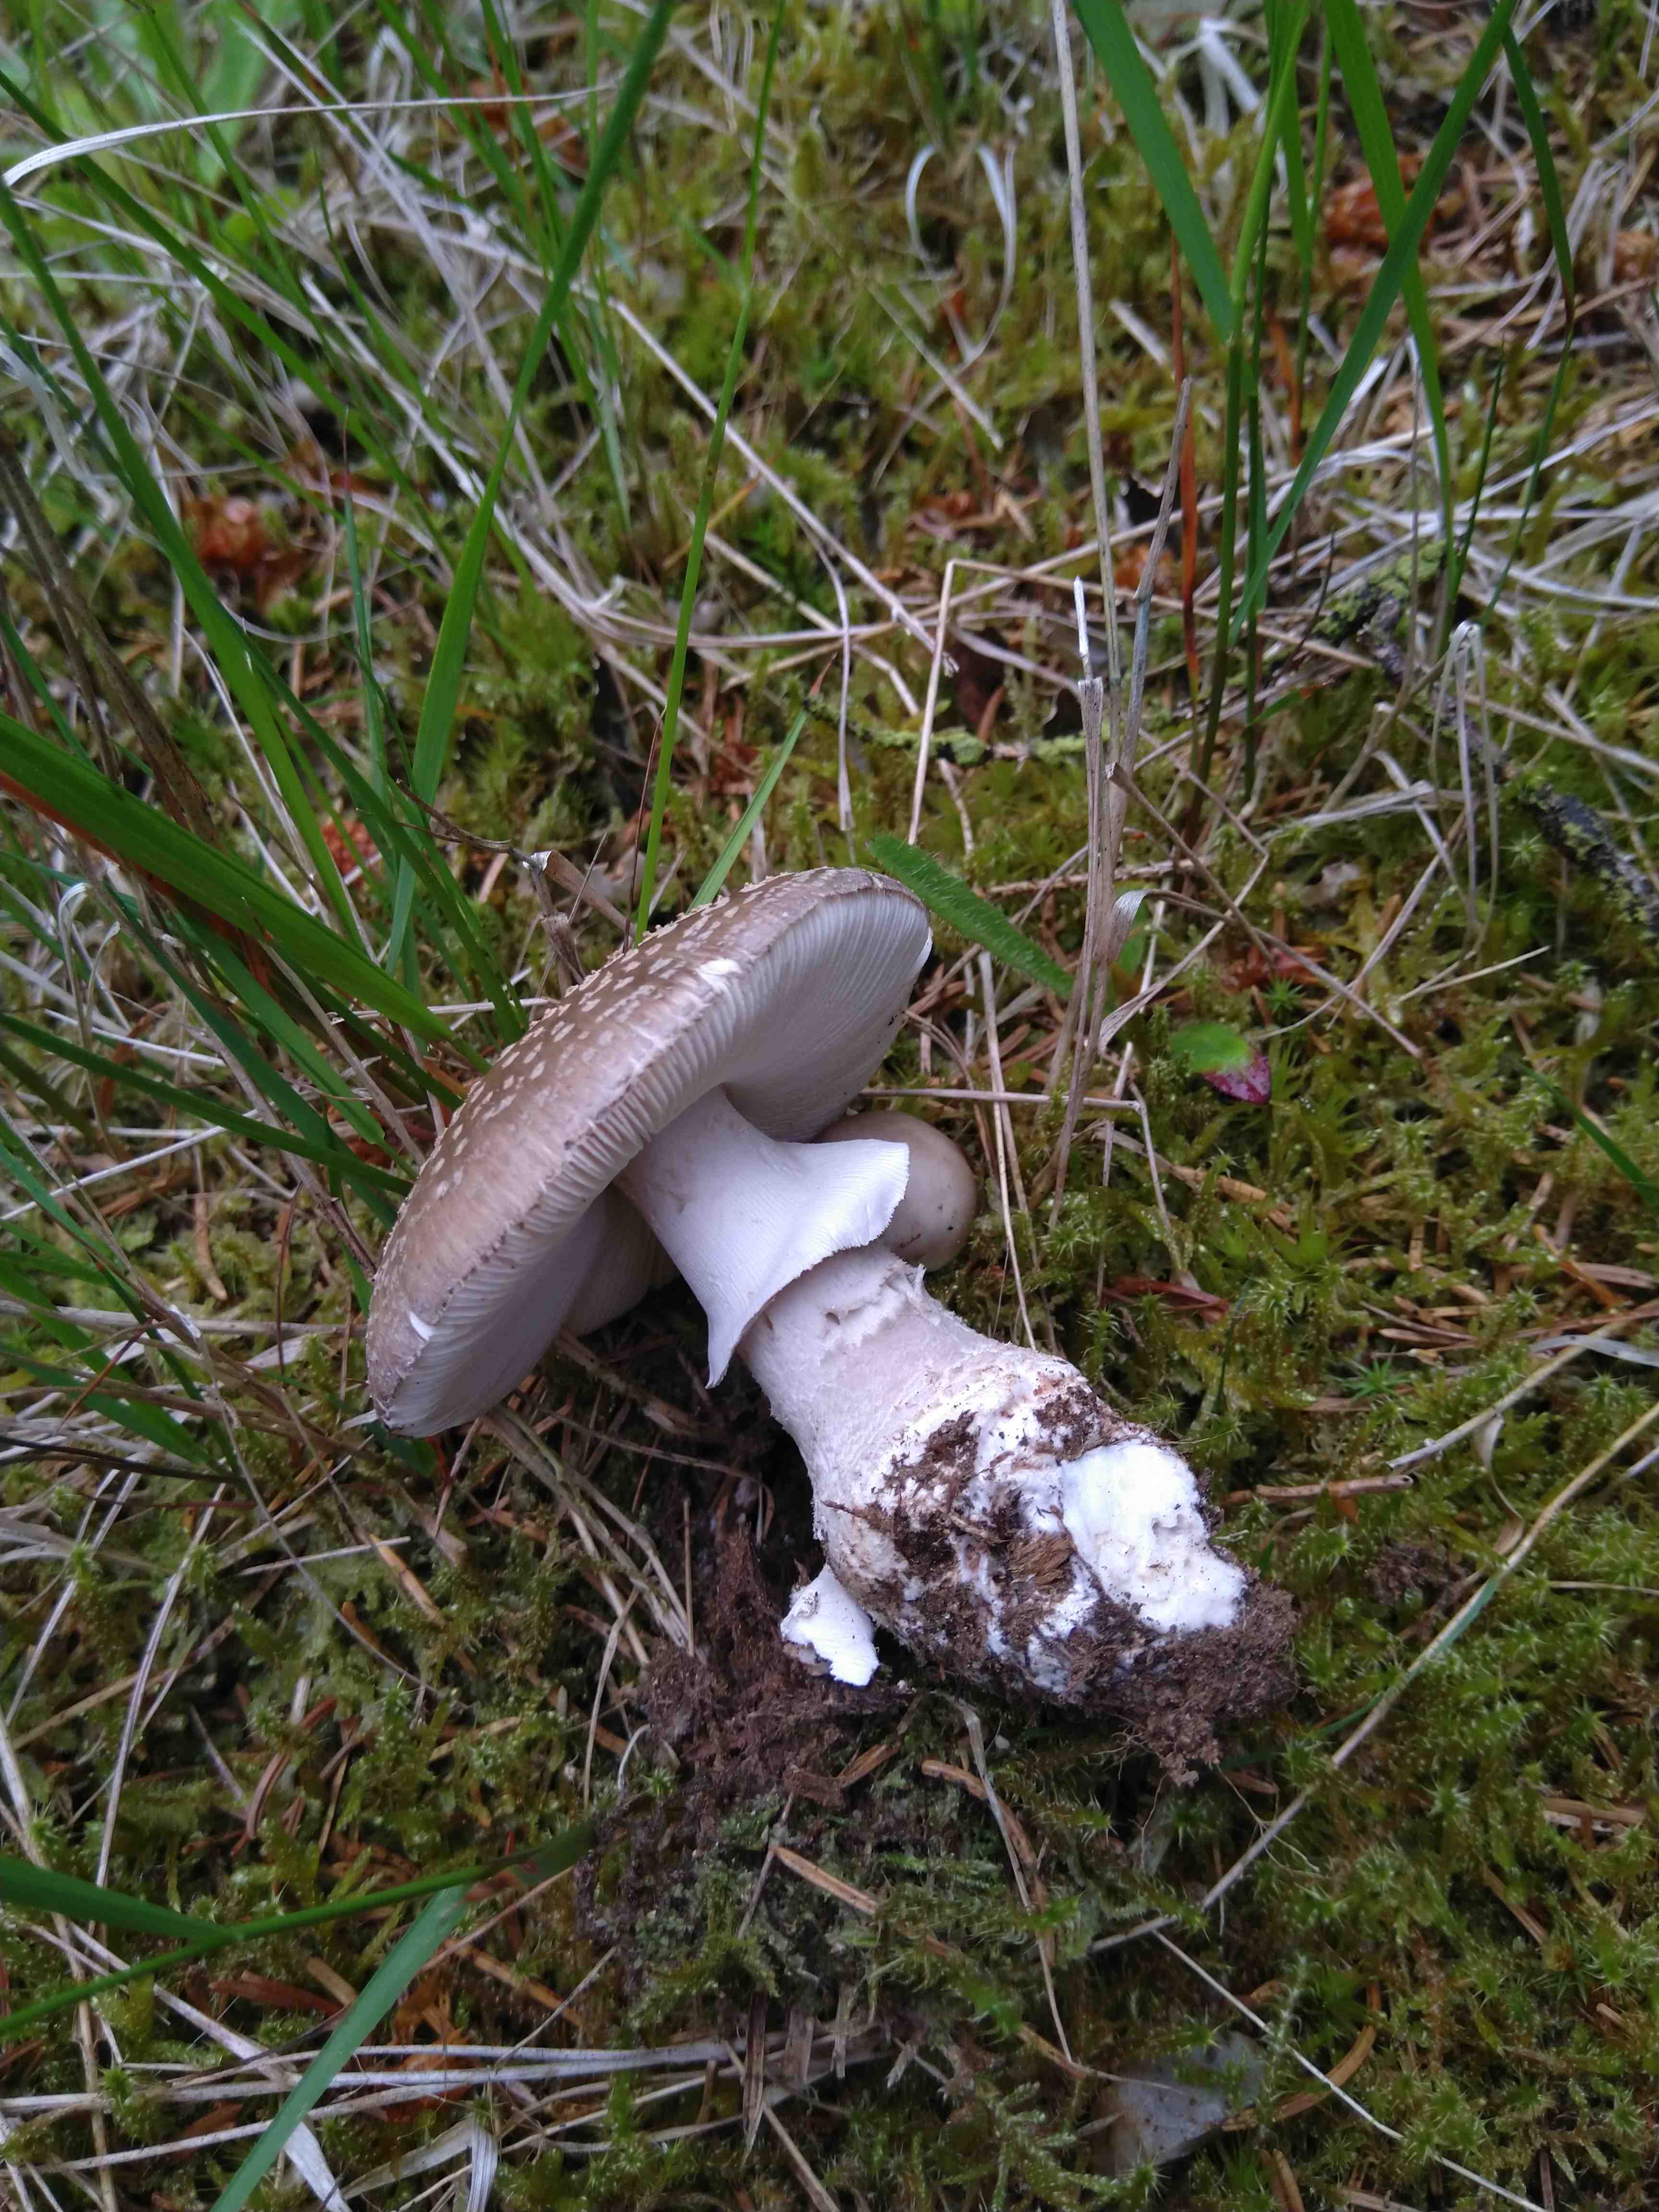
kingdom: Fungi
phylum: Basidiomycota
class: Agaricomycetes
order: Agaricales
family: Amanitaceae
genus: Amanita
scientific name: Amanita rubescens
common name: rødmende fluesvamp
